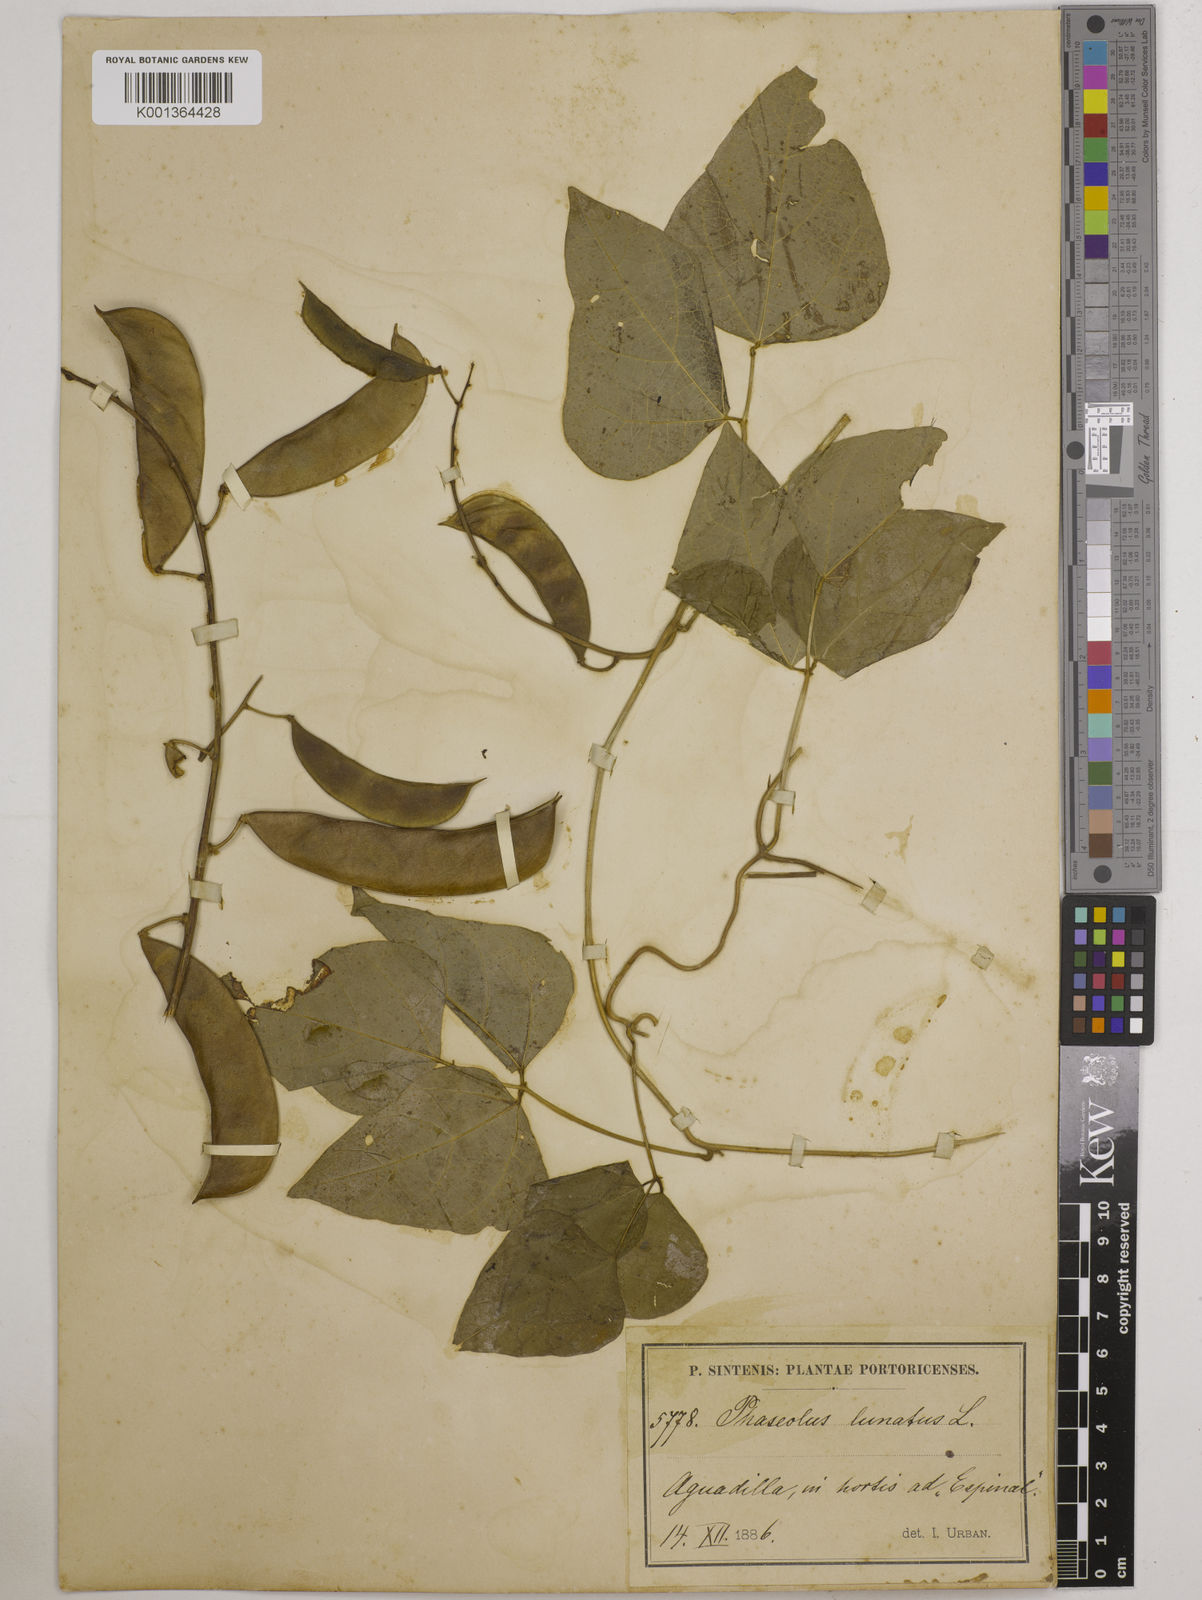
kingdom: Plantae
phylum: Tracheophyta
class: Magnoliopsida
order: Fabales
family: Fabaceae
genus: Phaseolus
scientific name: Phaseolus lunatus
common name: Sieva bean
